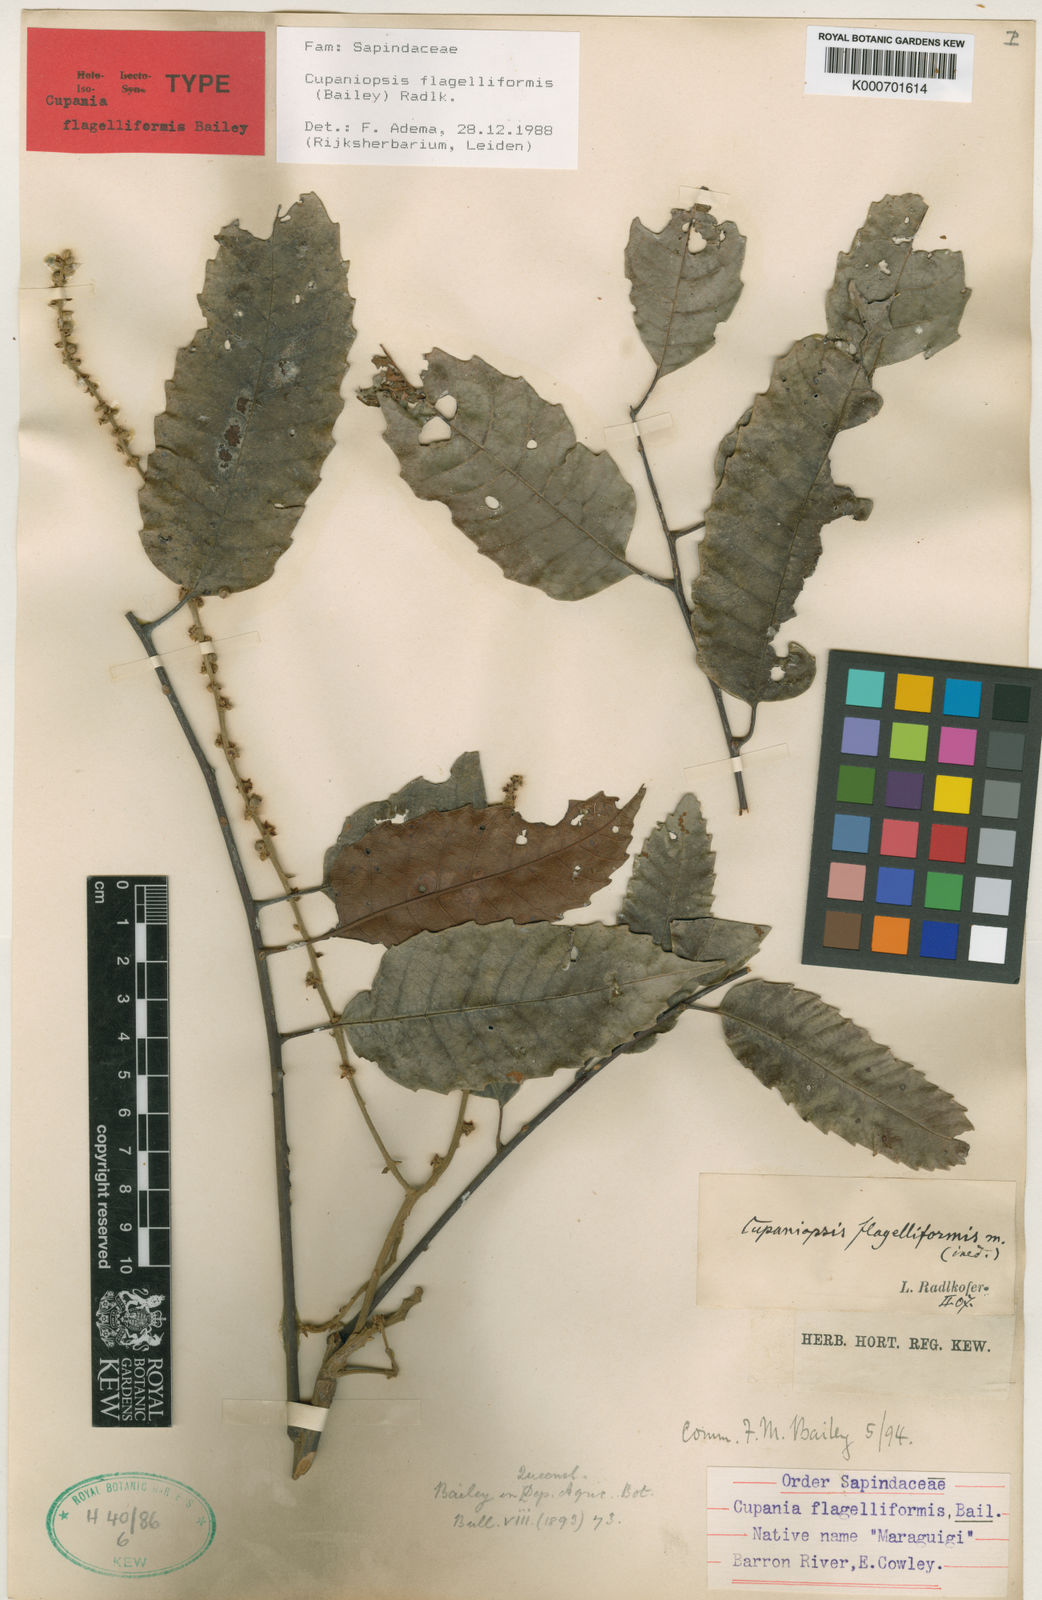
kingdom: Plantae
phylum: Tracheophyta
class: Magnoliopsida
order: Sapindales
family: Sapindaceae
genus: Cupaniopsis
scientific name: Cupaniopsis flagelliformis
